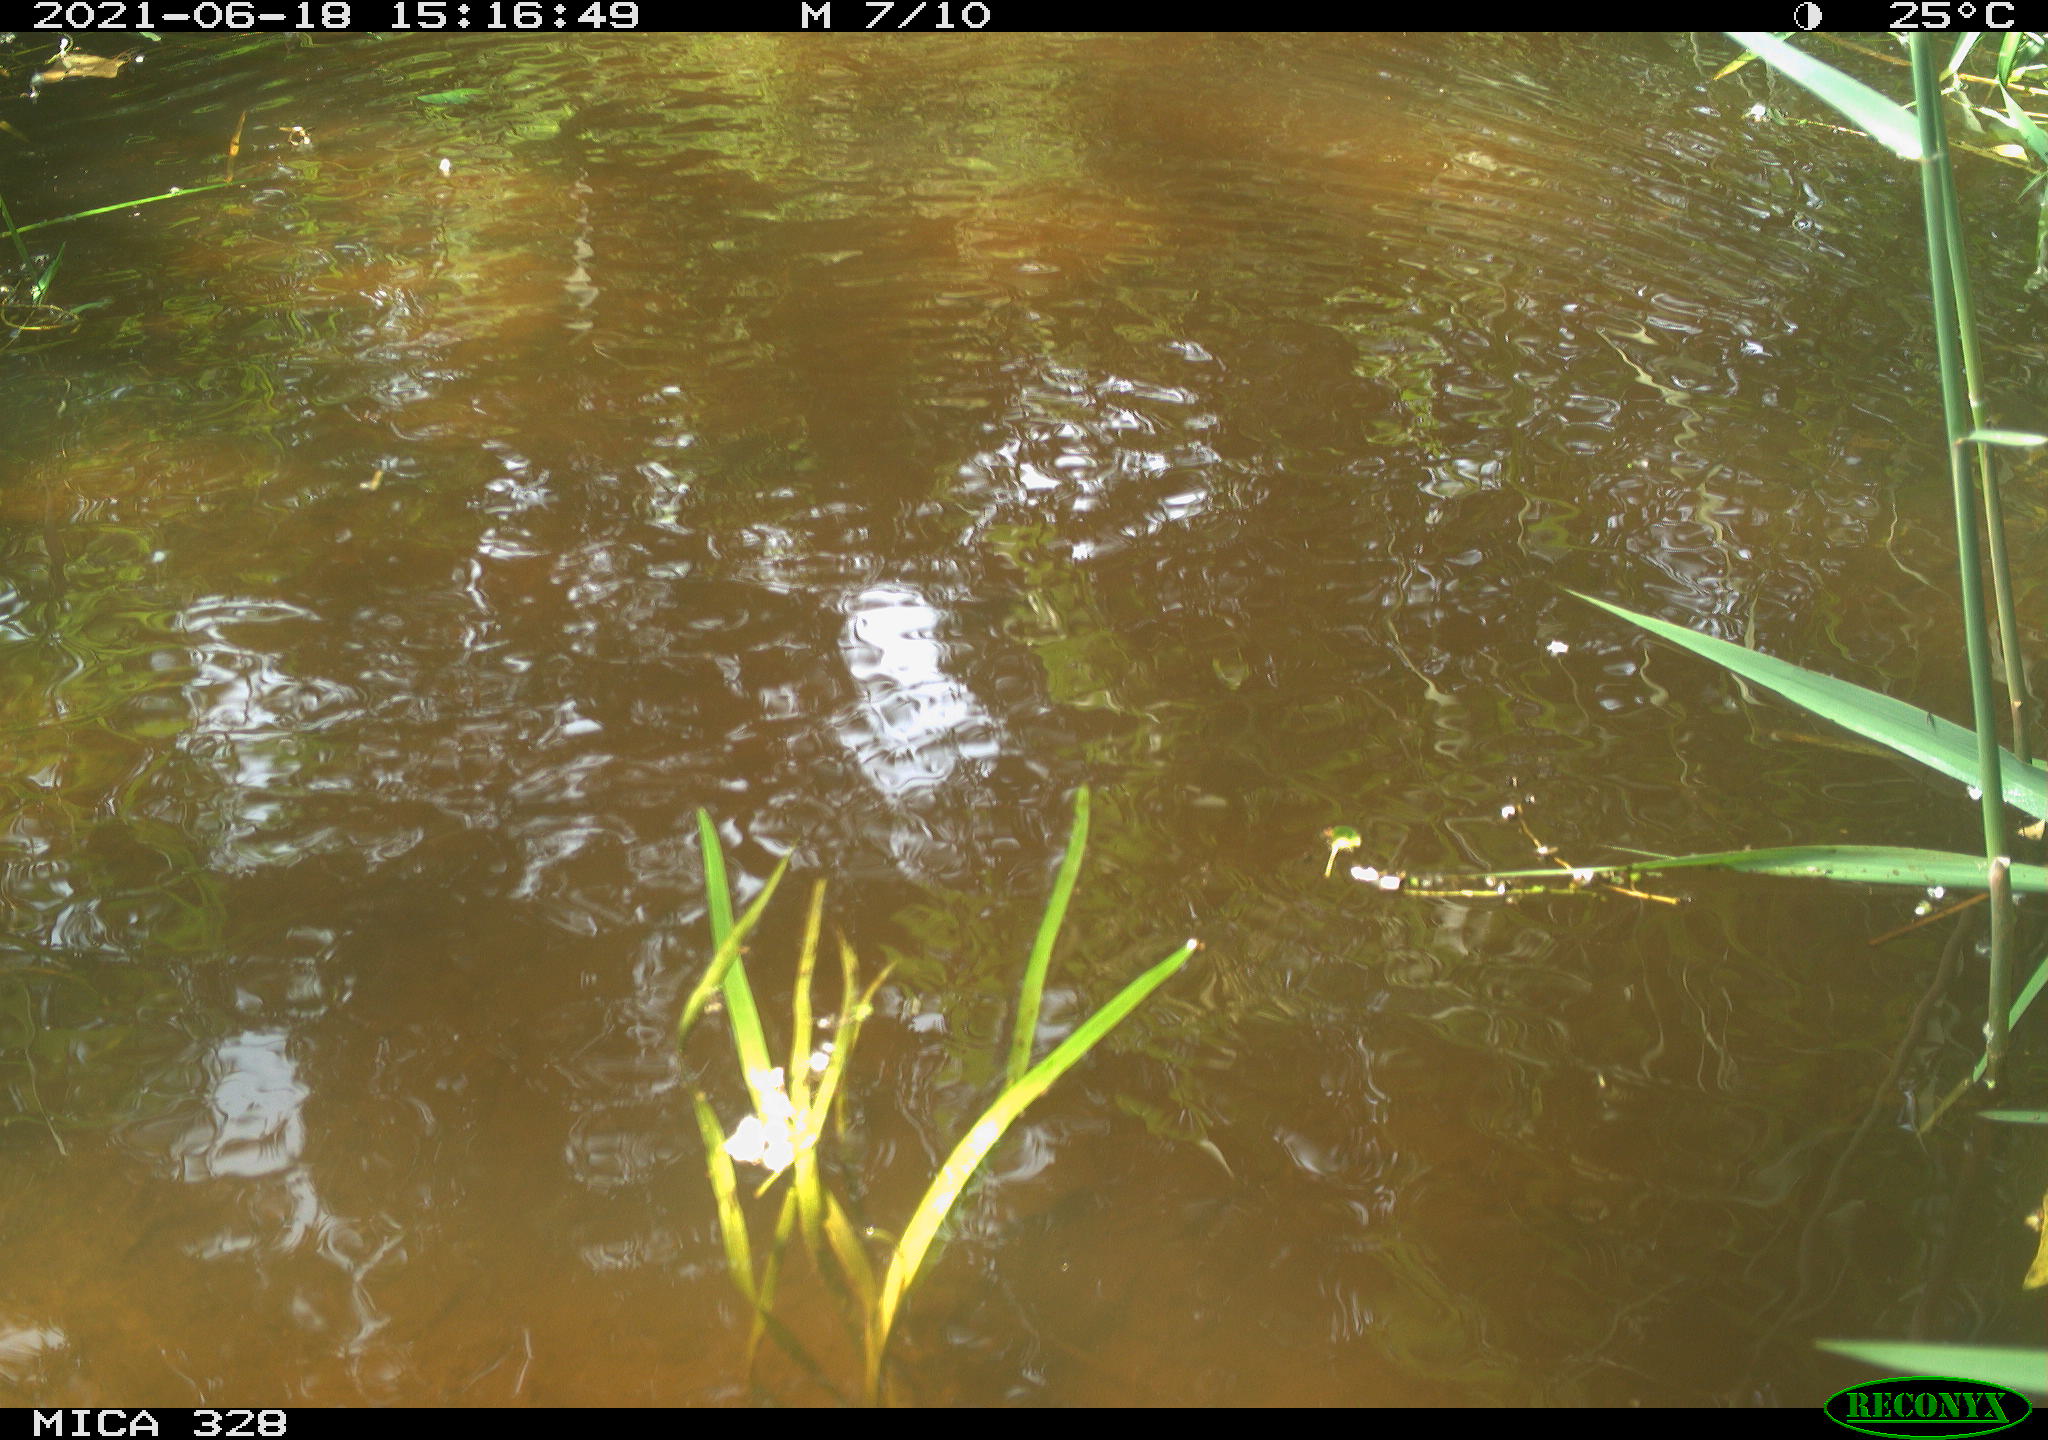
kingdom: Animalia
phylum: Chordata
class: Aves
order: Anseriformes
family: Anatidae
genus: Aix
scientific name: Aix galericulata
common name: Mandarin duck
